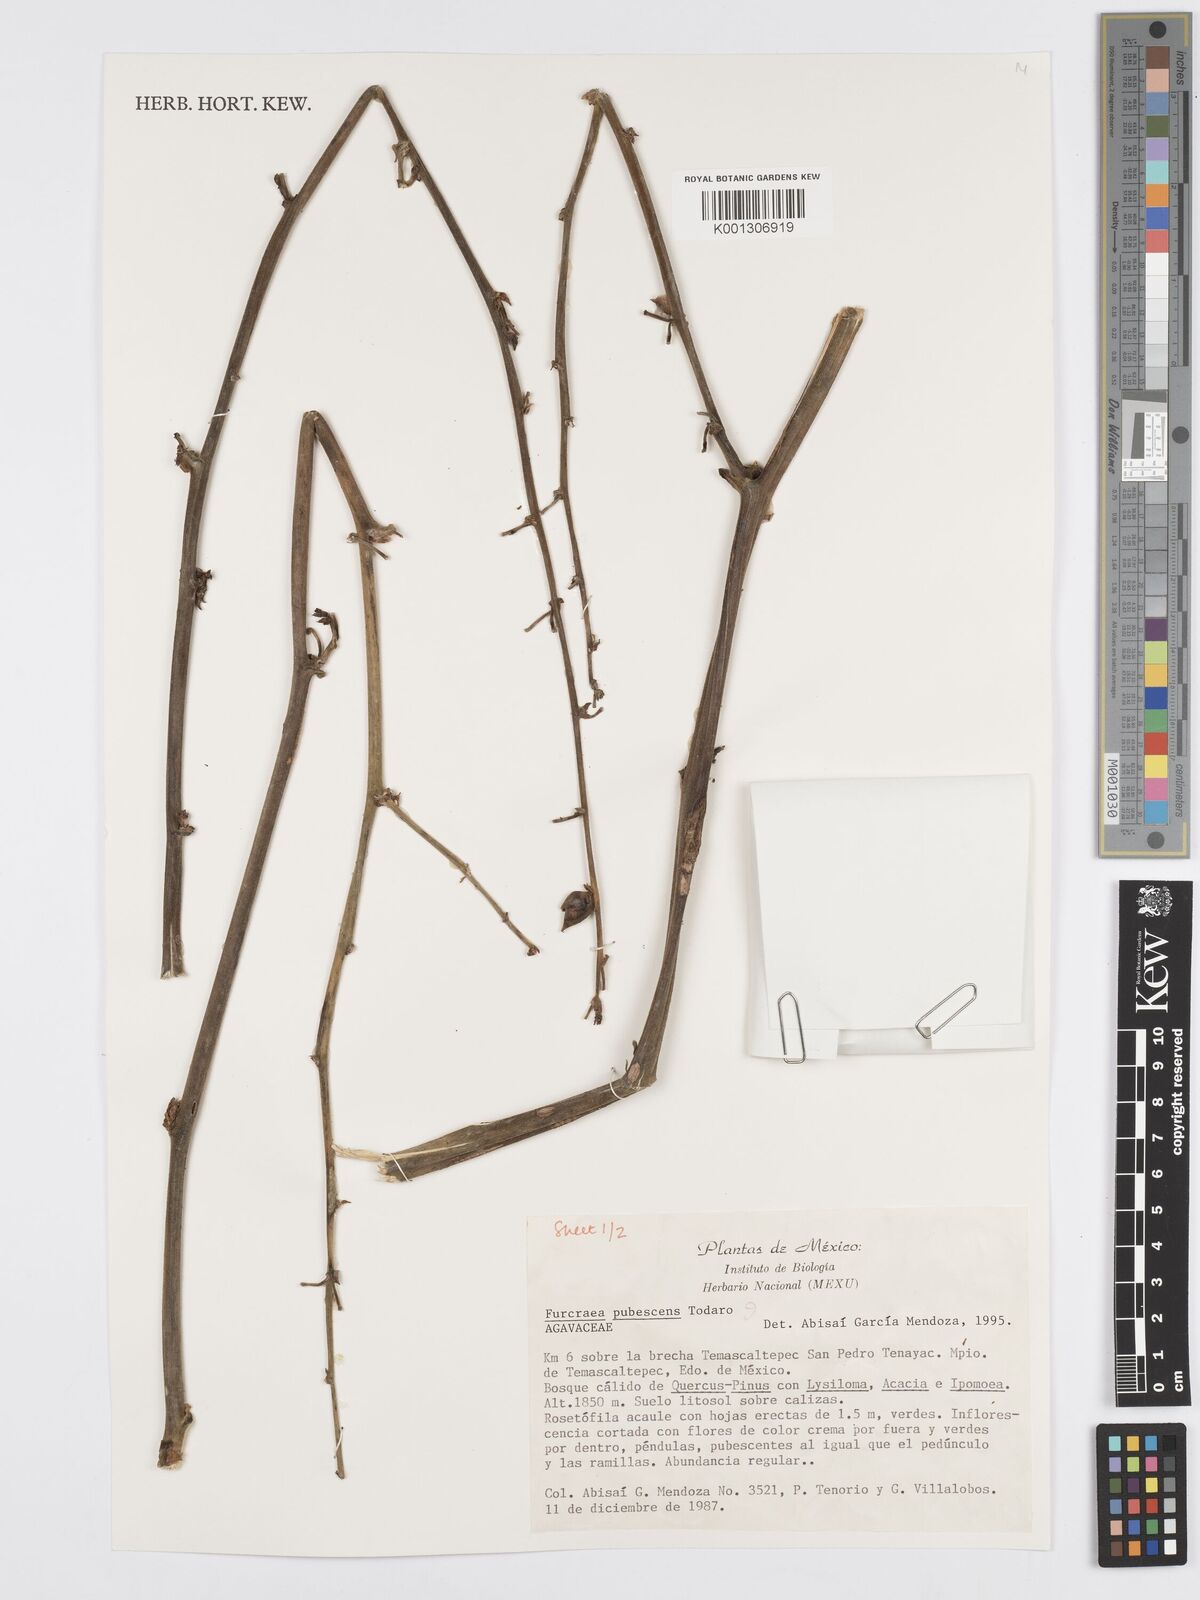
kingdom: Plantae
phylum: Tracheophyta
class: Liliopsida
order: Asparagales
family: Asparagaceae
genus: Furcraea
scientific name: Furcraea pubescens
